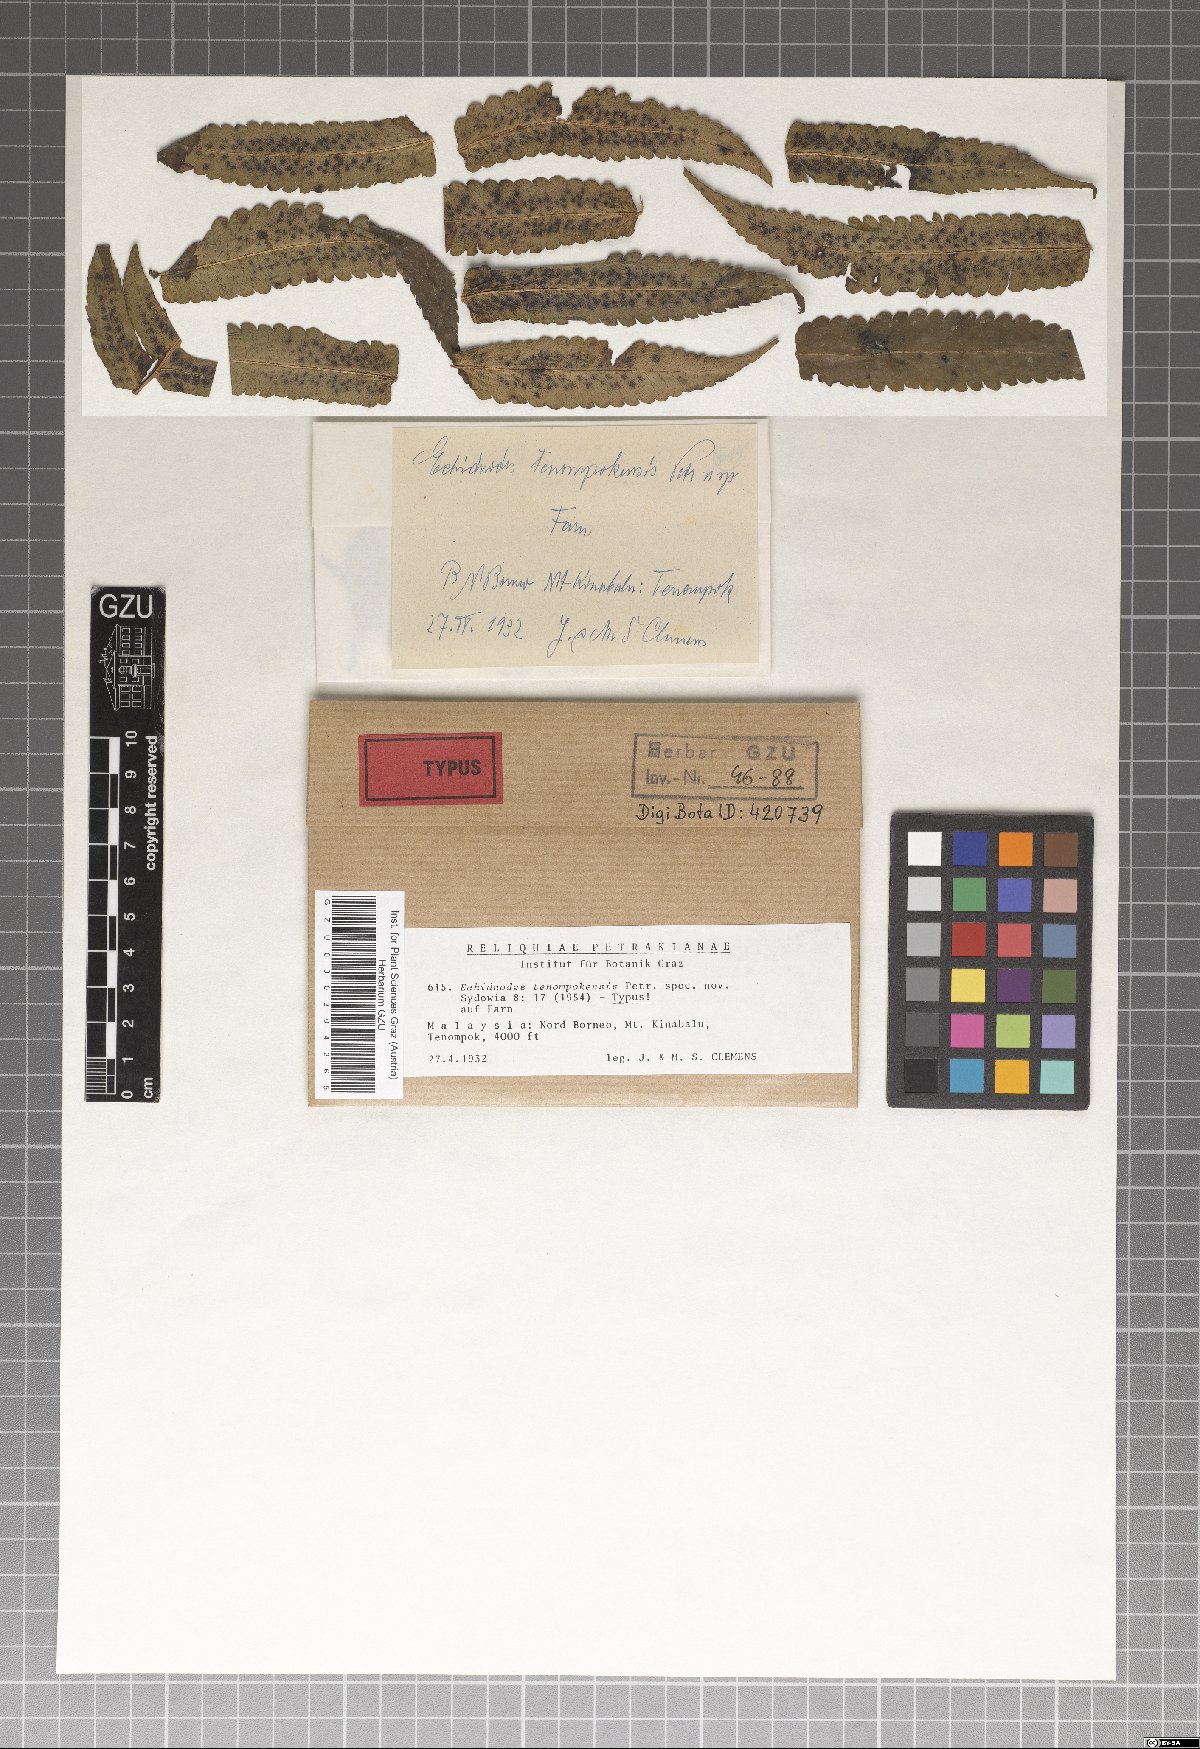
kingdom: Fungi
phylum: Ascomycota
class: Dothideomycetes
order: Asterinales
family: Asterinaceae
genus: Echidnodes
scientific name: Echidnodes tenompokensis
